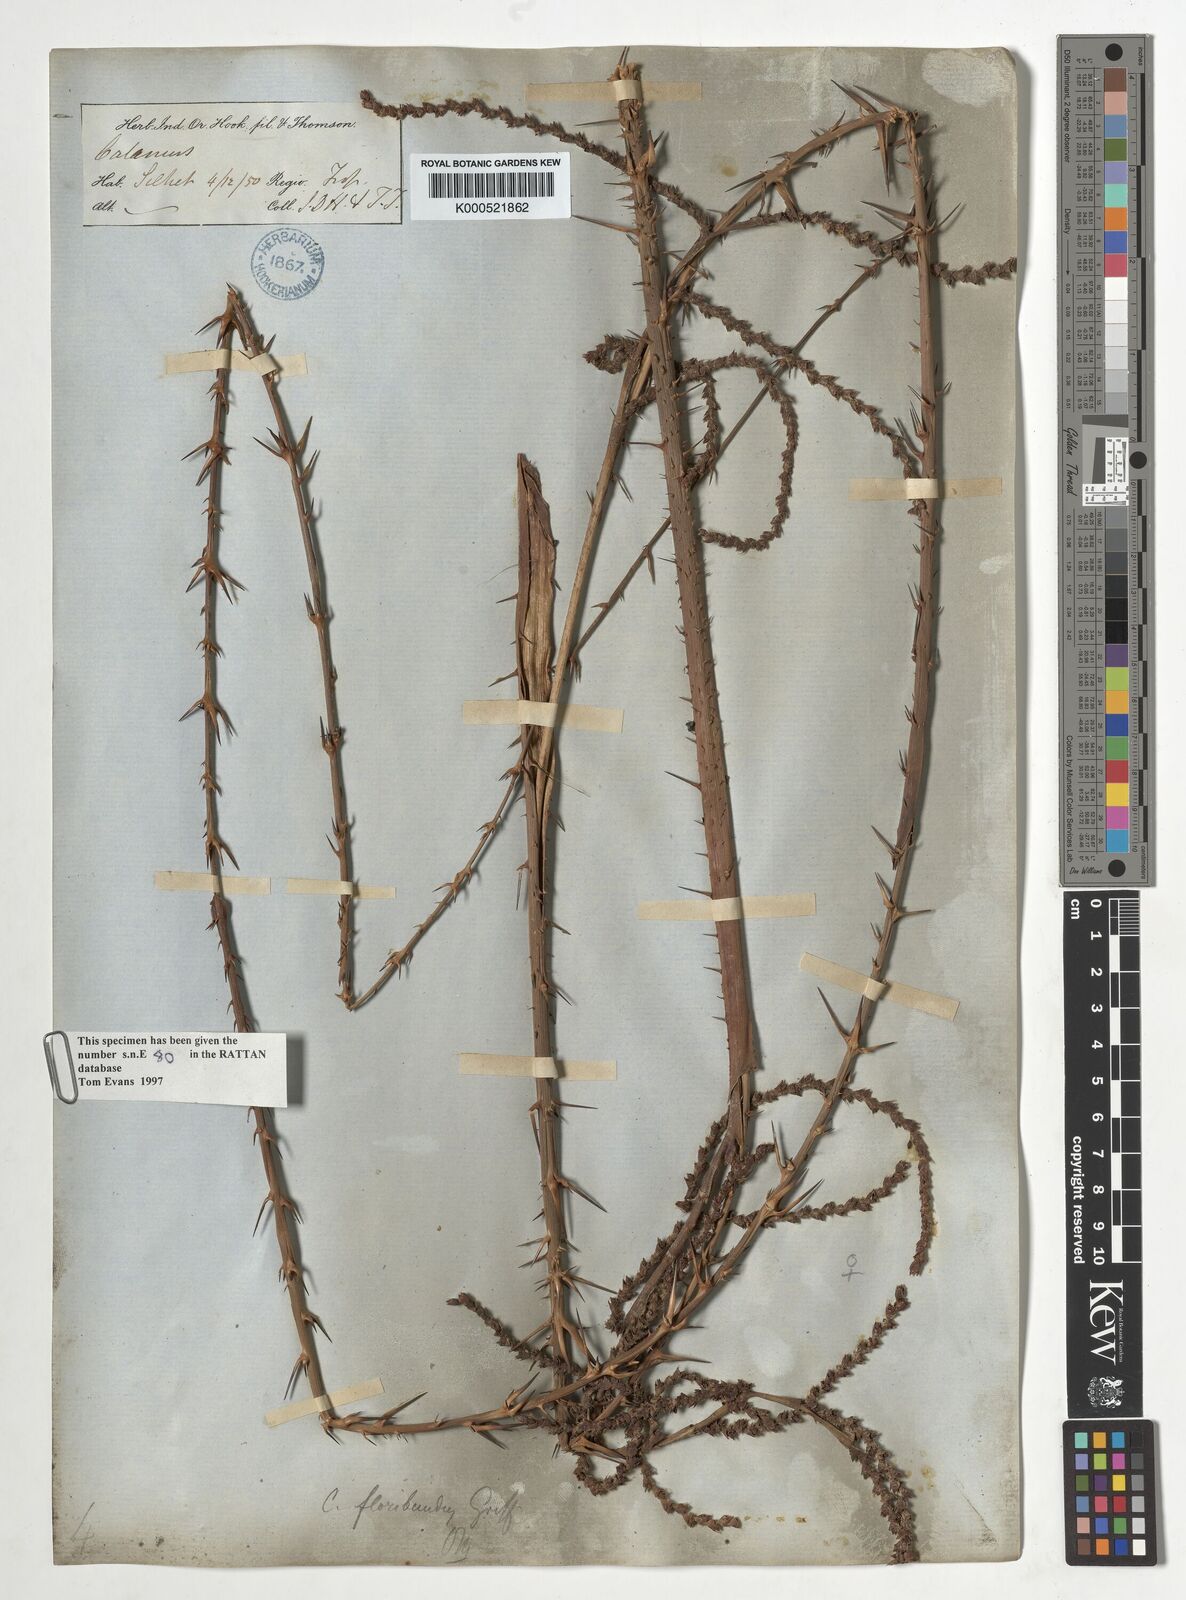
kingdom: Plantae
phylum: Tracheophyta
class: Liliopsida
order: Arecales
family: Arecaceae
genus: Calamus
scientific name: Calamus floribundus
